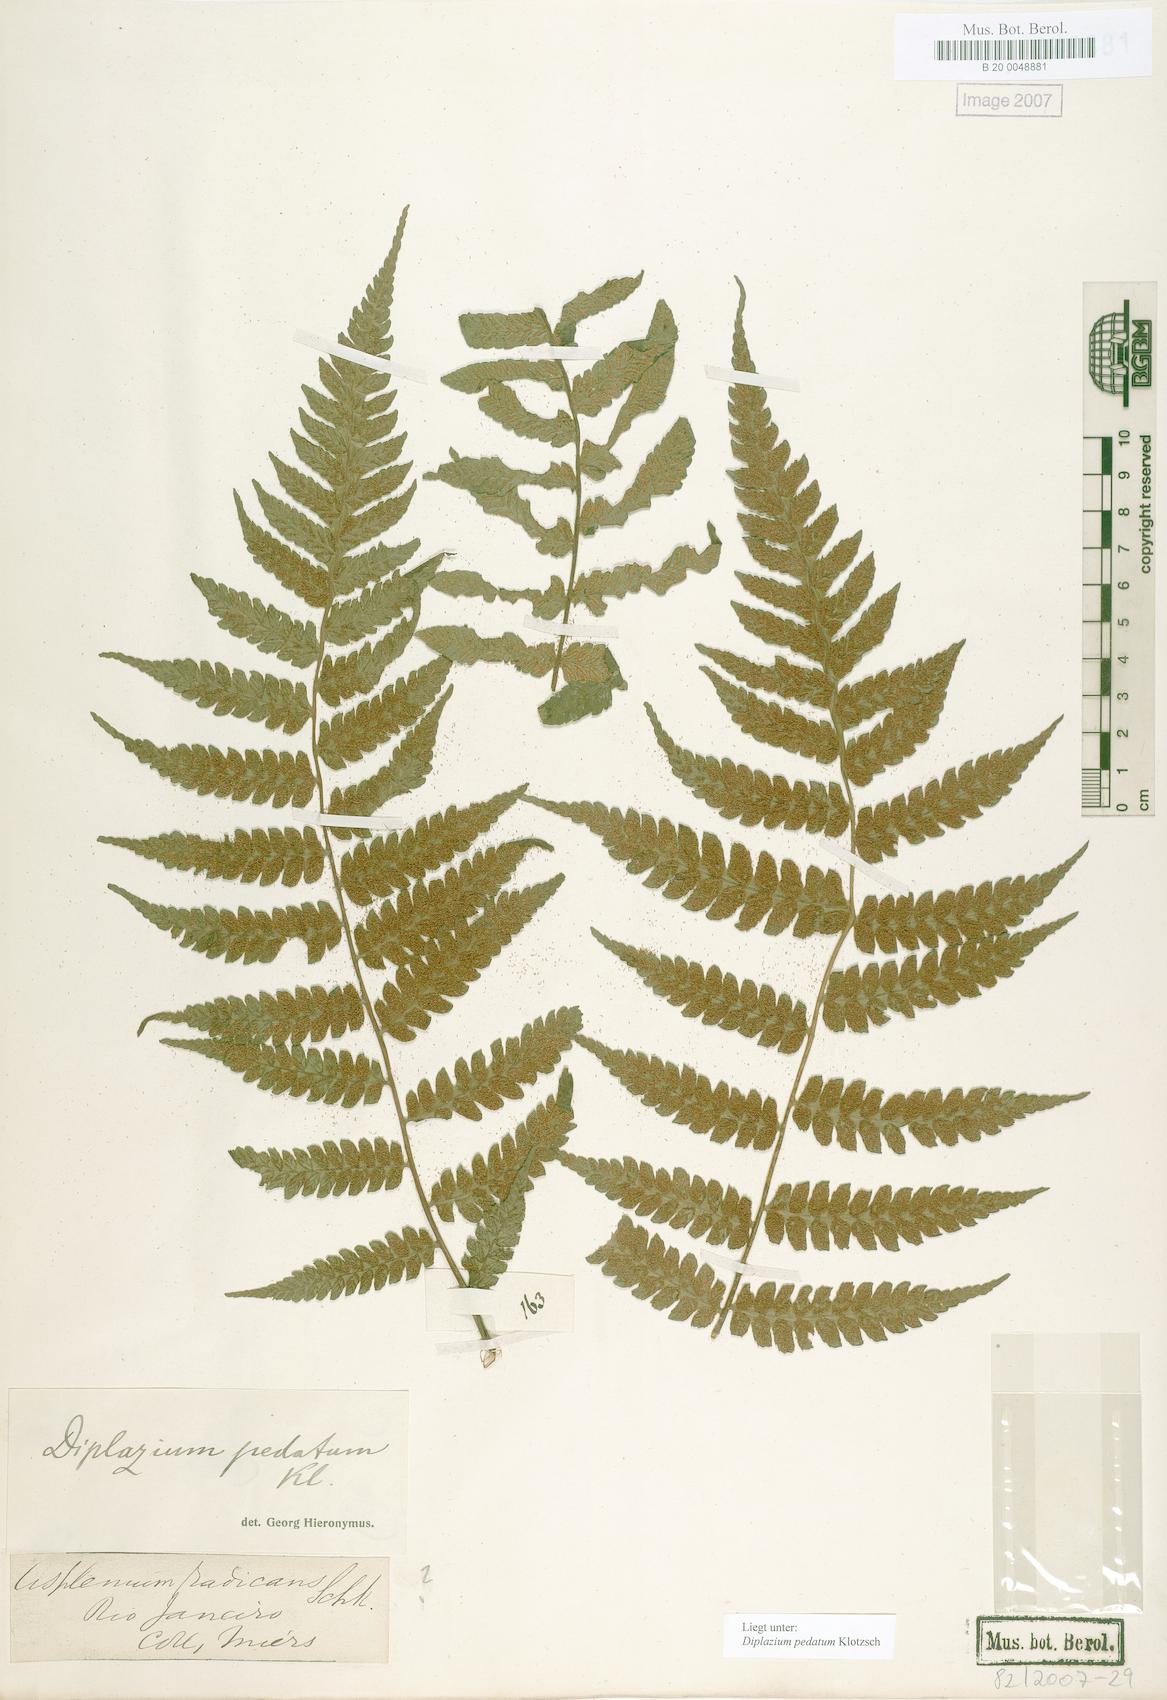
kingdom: Plantae
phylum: Tracheophyta
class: Polypodiopsida
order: Polypodiales
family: Athyriaceae
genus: Diplazium
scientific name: Diplazium pedatum
